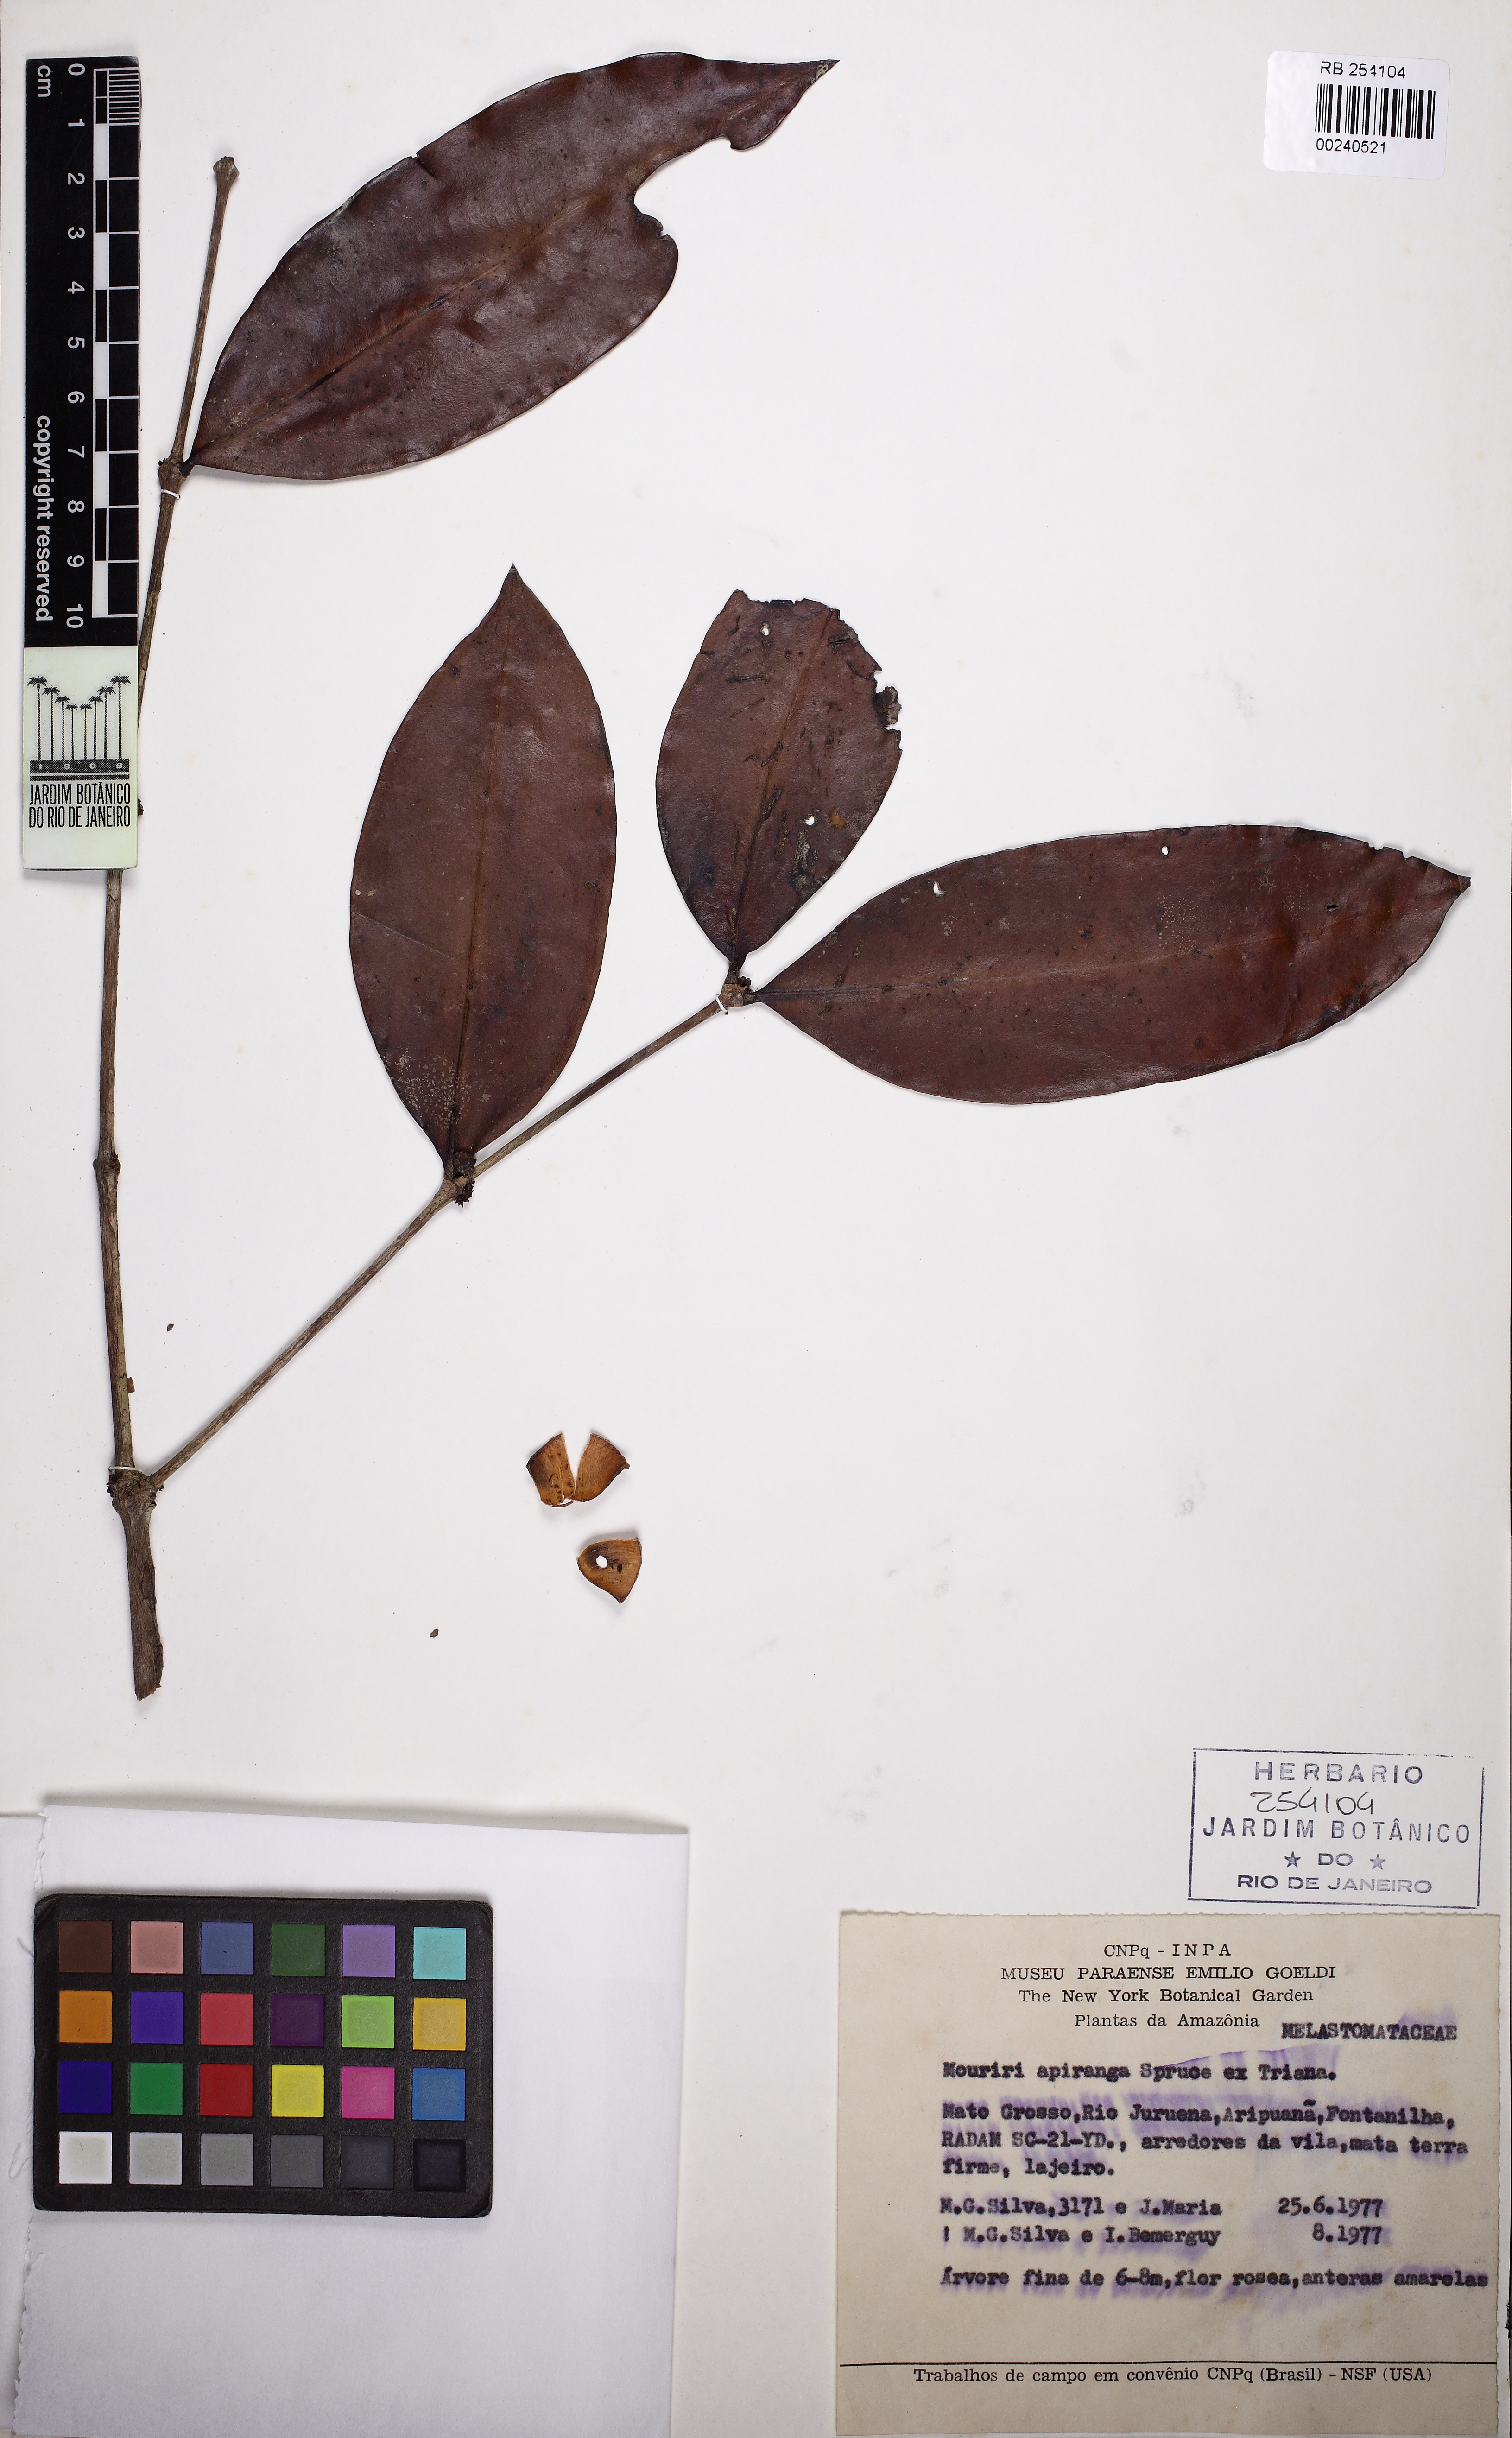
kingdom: Plantae
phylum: Tracheophyta
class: Magnoliopsida
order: Myrtales
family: Melastomataceae
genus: Mouriri
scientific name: Mouriri apiranga
